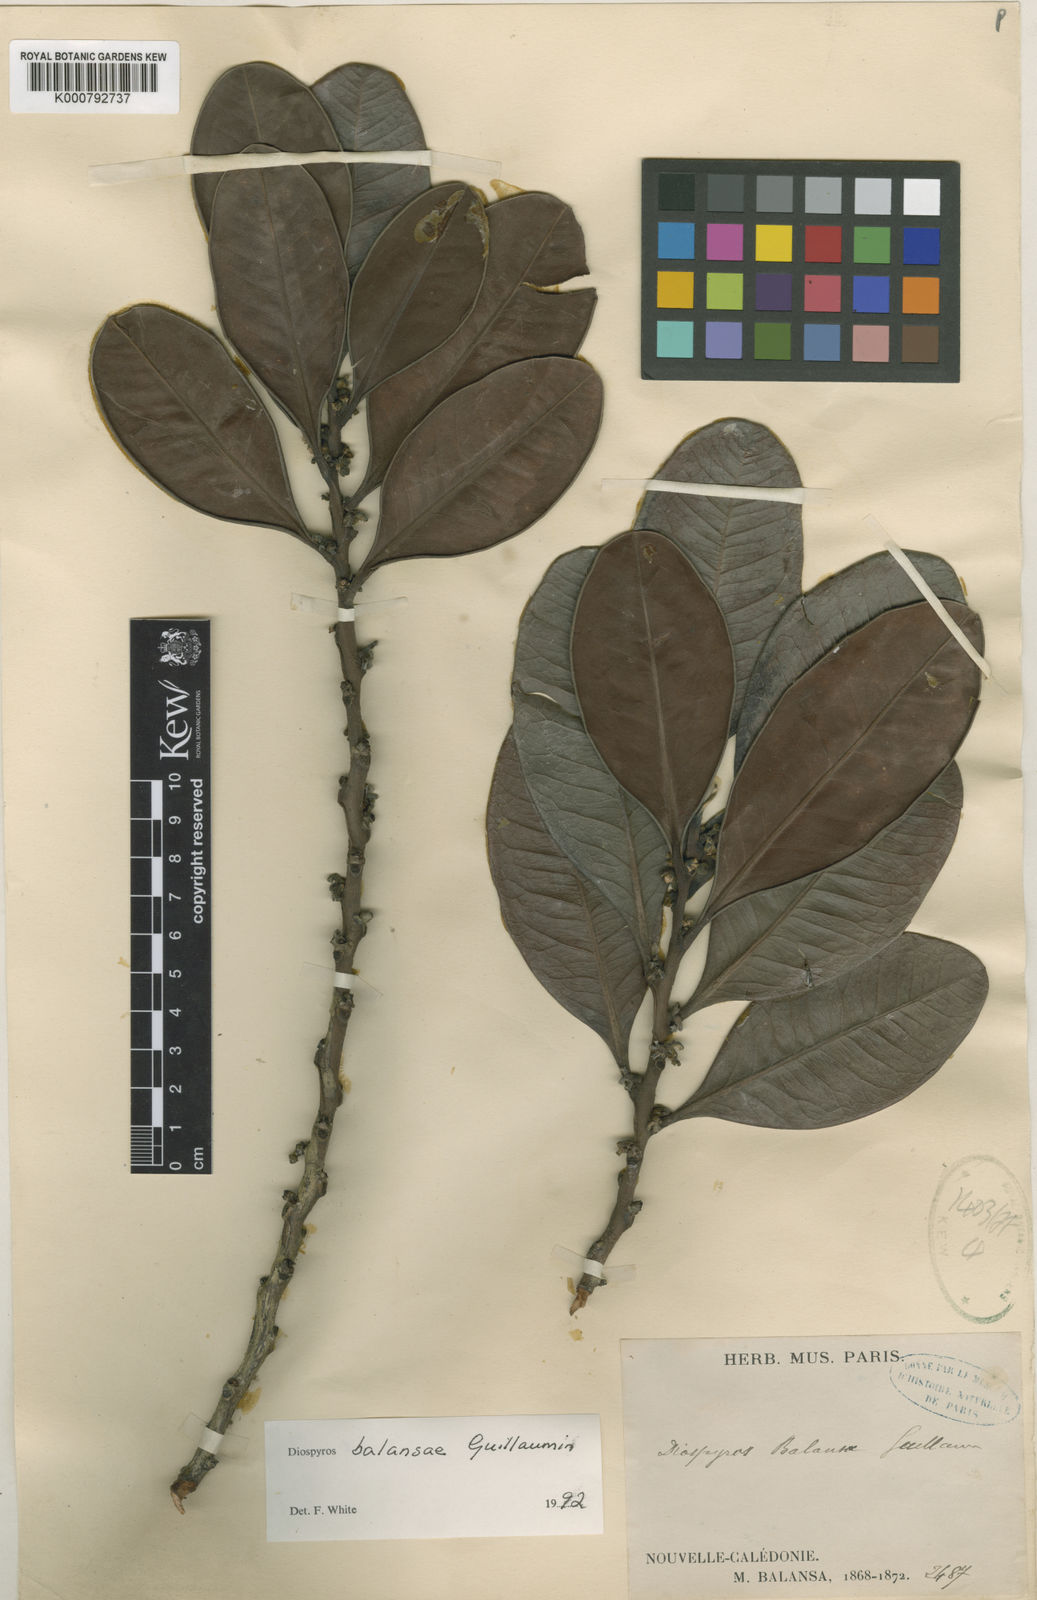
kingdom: Plantae
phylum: Tracheophyta
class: Magnoliopsida
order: Ericales
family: Ebenaceae
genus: Diospyros
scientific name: Diospyros balansae
